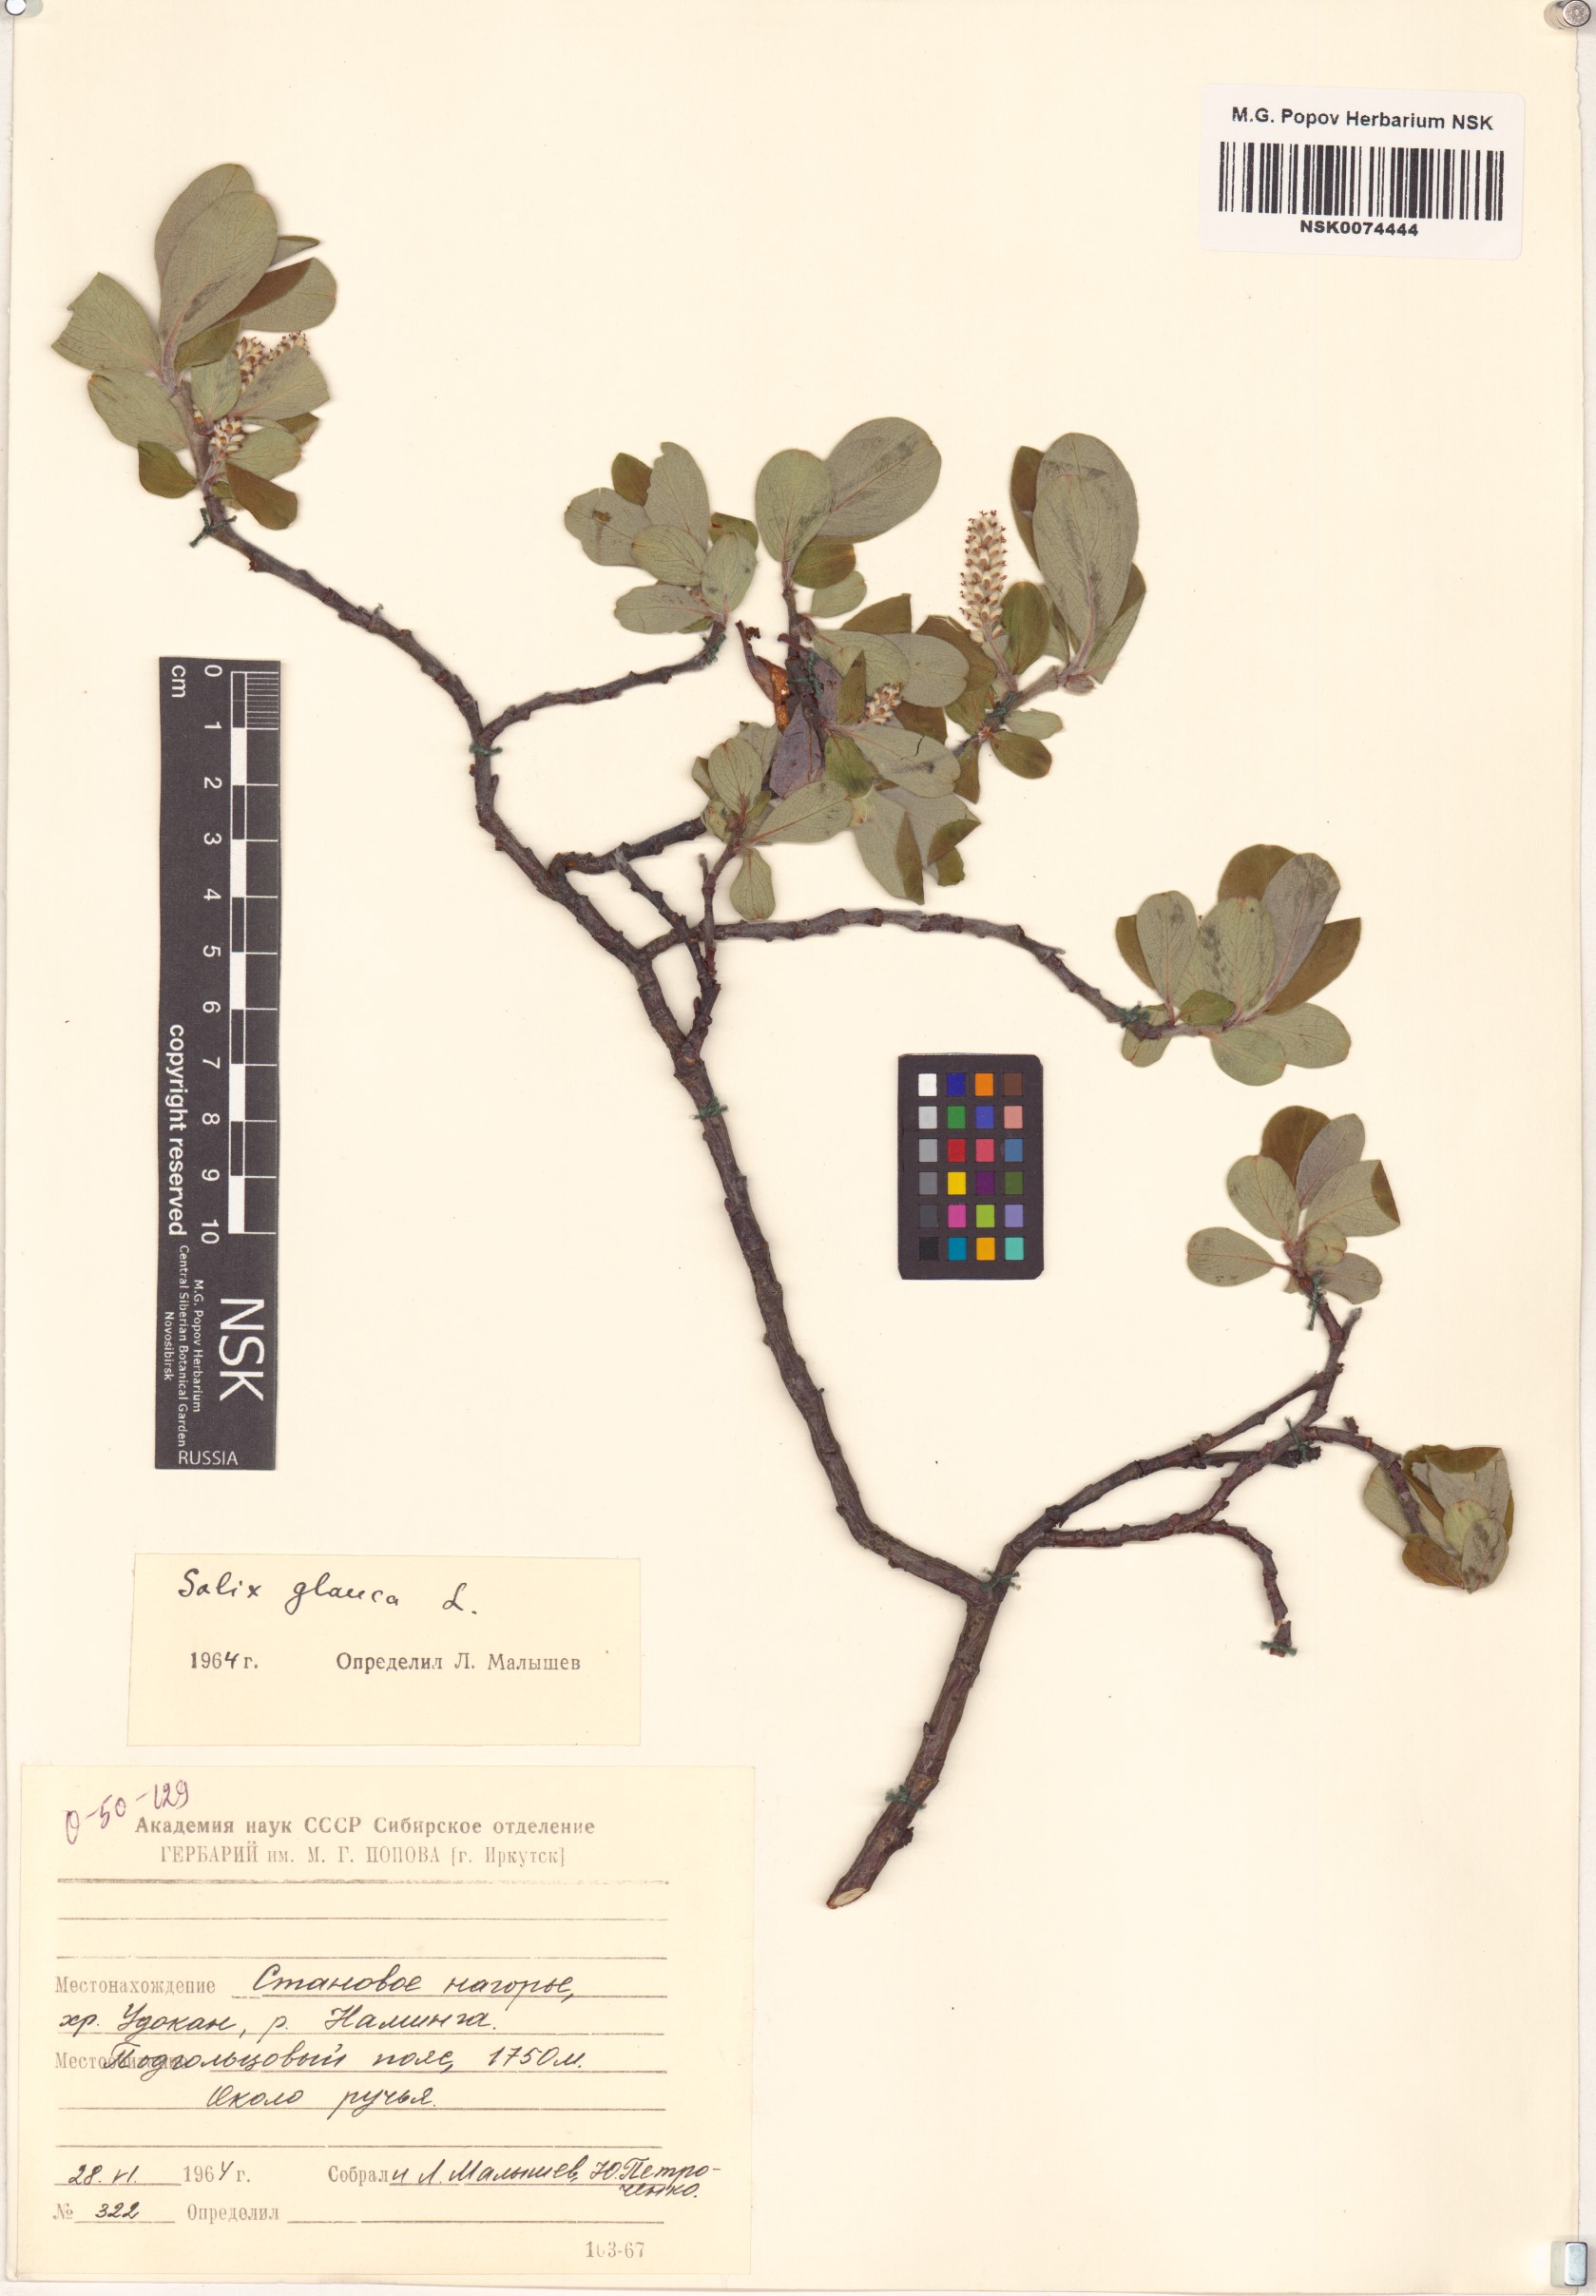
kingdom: Plantae
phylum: Tracheophyta
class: Magnoliopsida
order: Malpighiales
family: Salicaceae
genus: Salix
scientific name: Salix glauca
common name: Glaucous willow
